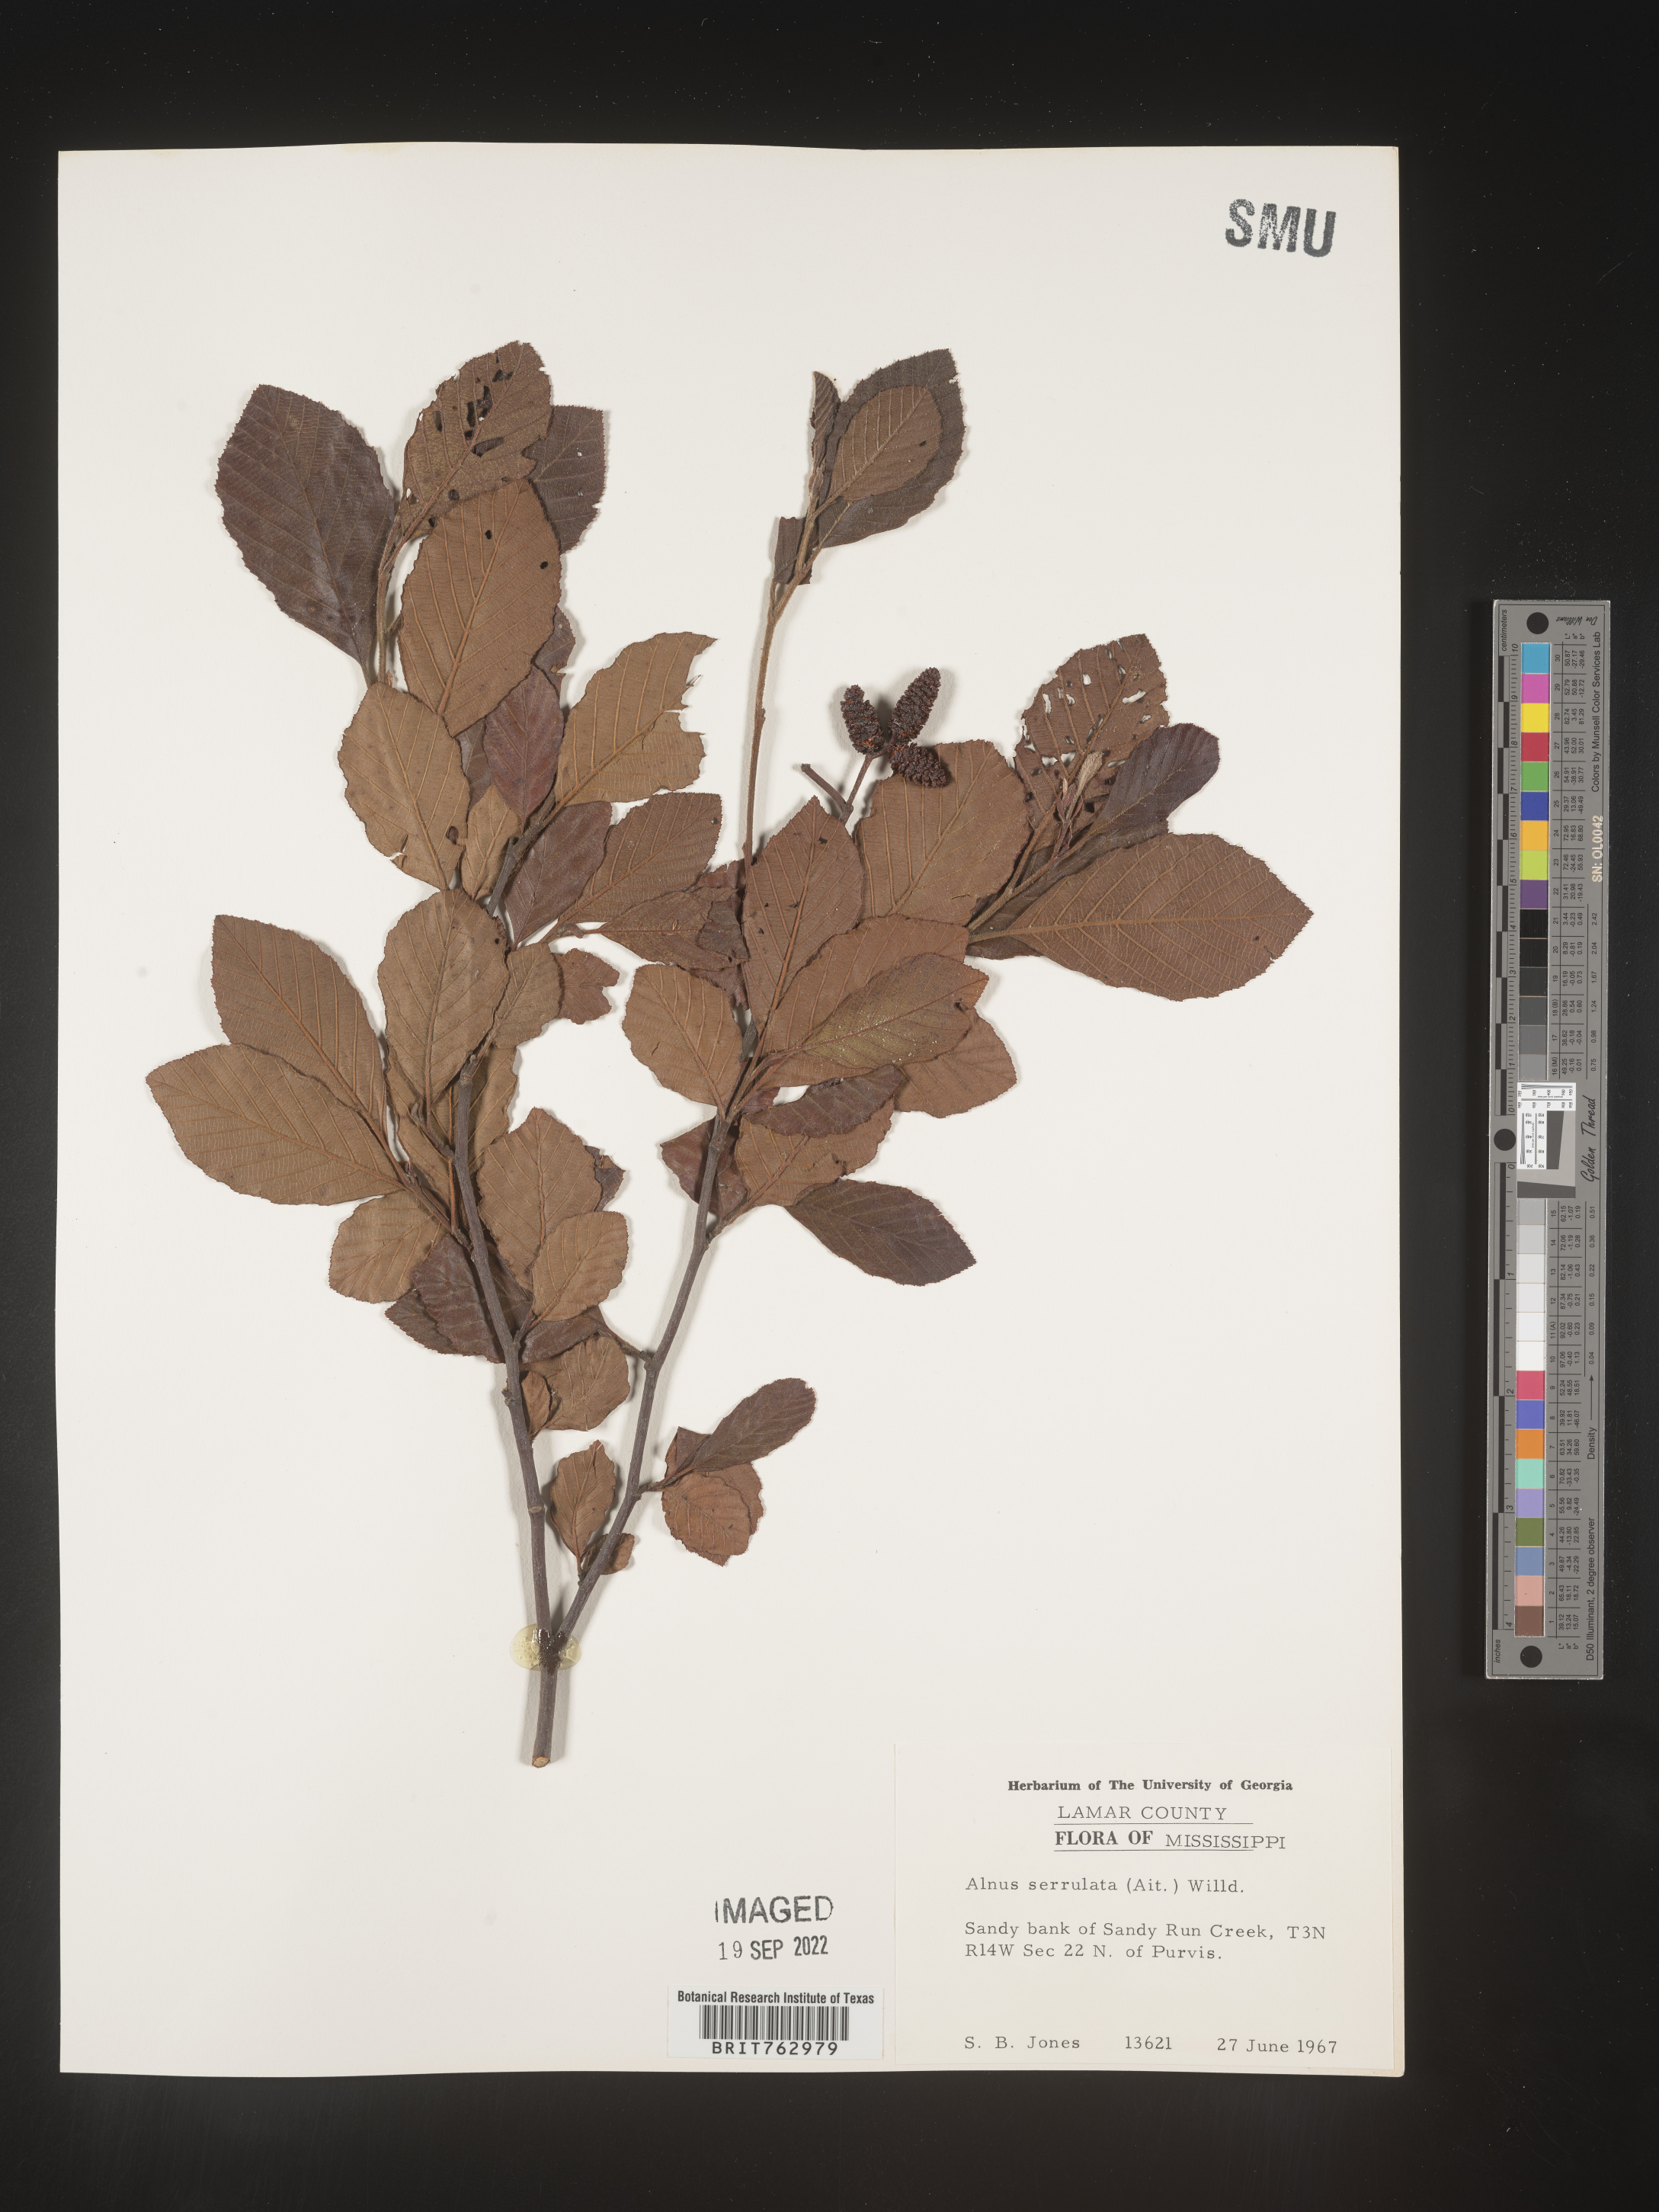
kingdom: Plantae
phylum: Tracheophyta
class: Magnoliopsida
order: Fagales
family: Betulaceae
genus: Alnus
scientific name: Alnus serrulata
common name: Hazel alder
